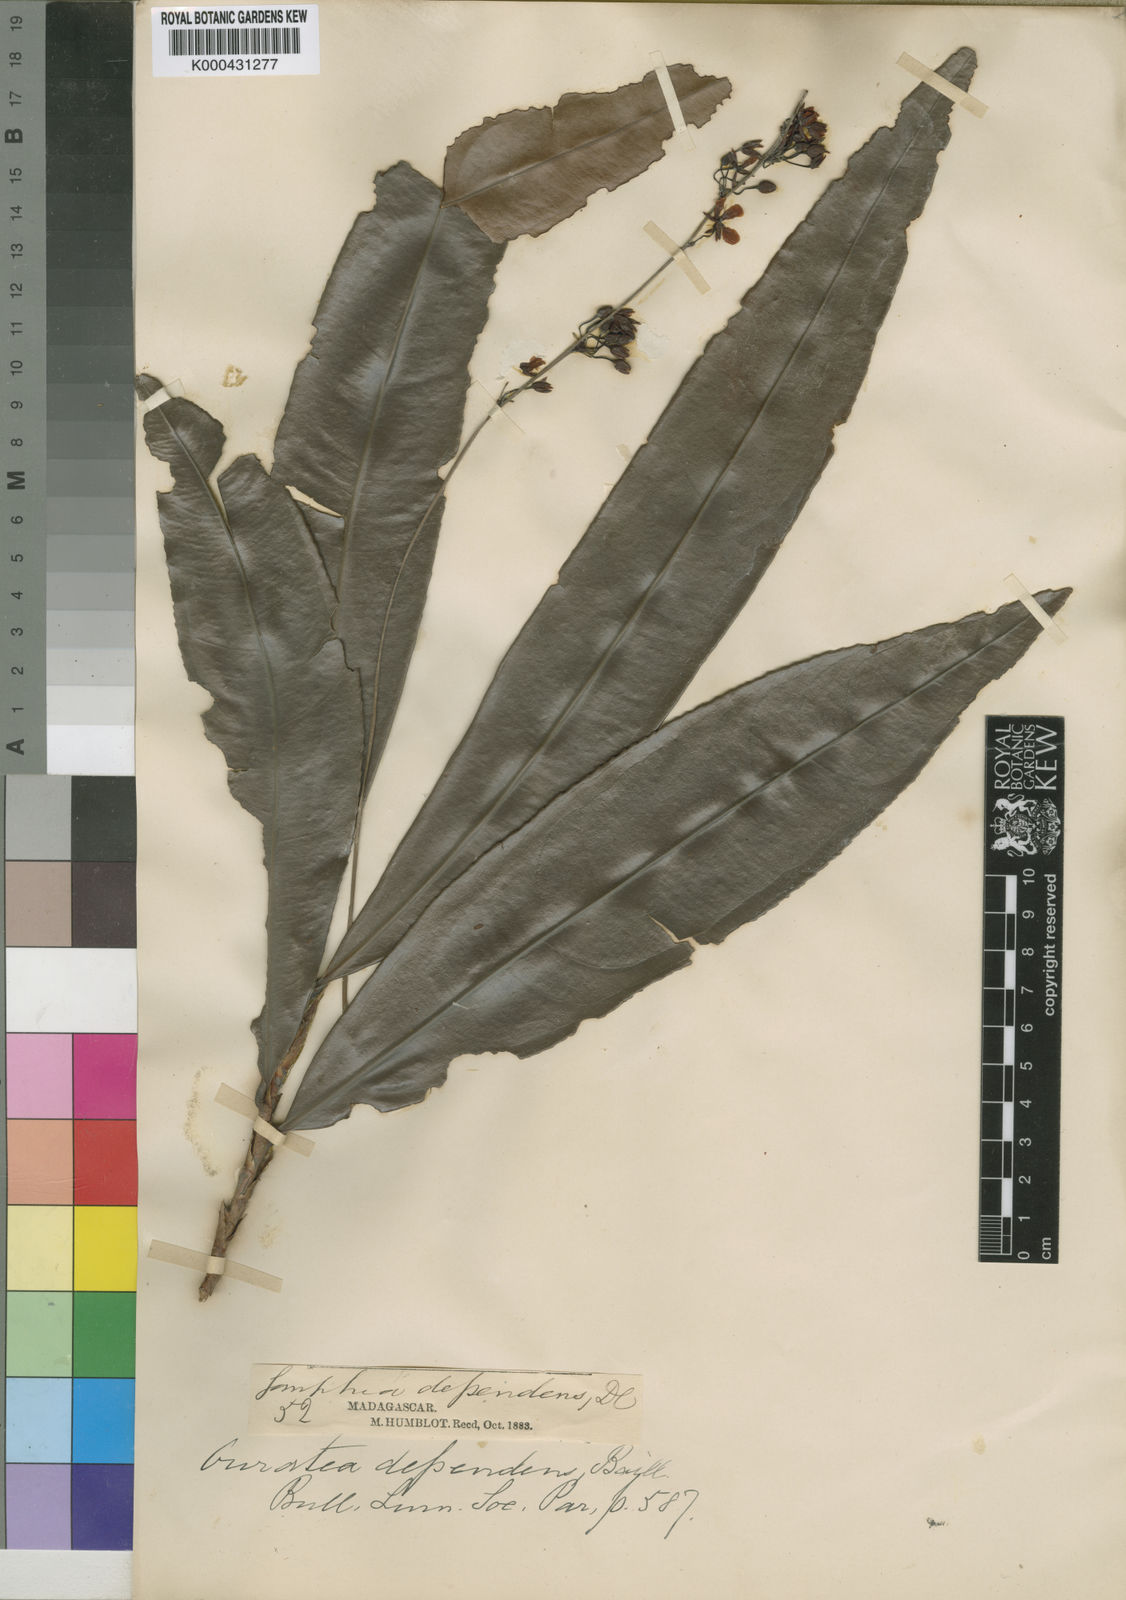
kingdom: Plantae
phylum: Tracheophyta
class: Magnoliopsida
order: Malpighiales
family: Ochnaceae
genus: Campylospermum
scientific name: Campylospermum dependens
